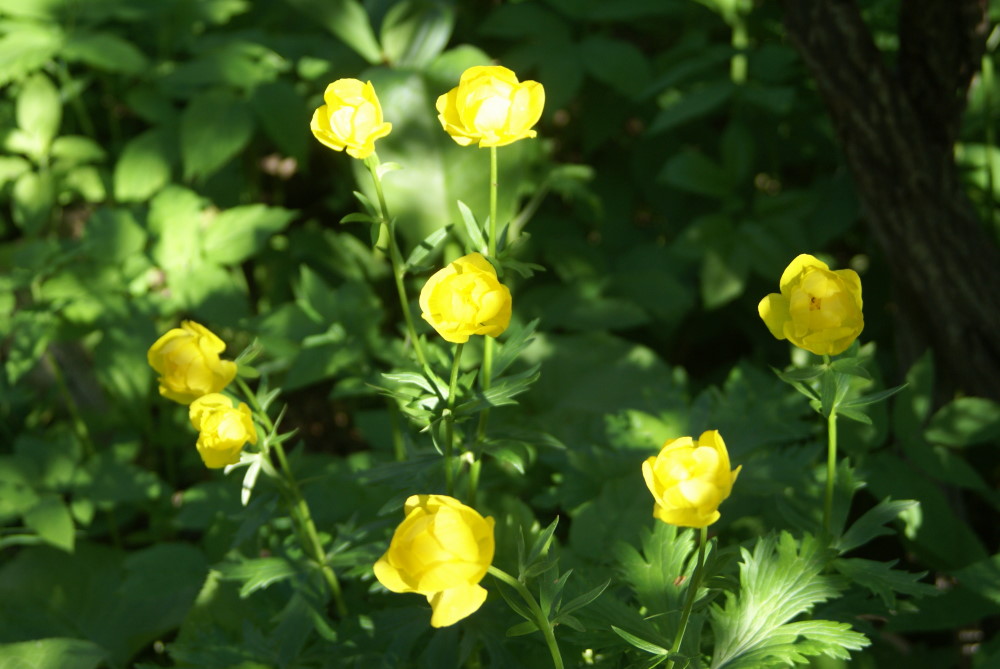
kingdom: Plantae
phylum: Tracheophyta
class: Magnoliopsida
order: Ranunculales
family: Ranunculaceae
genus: Trollius
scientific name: Trollius europaeus
